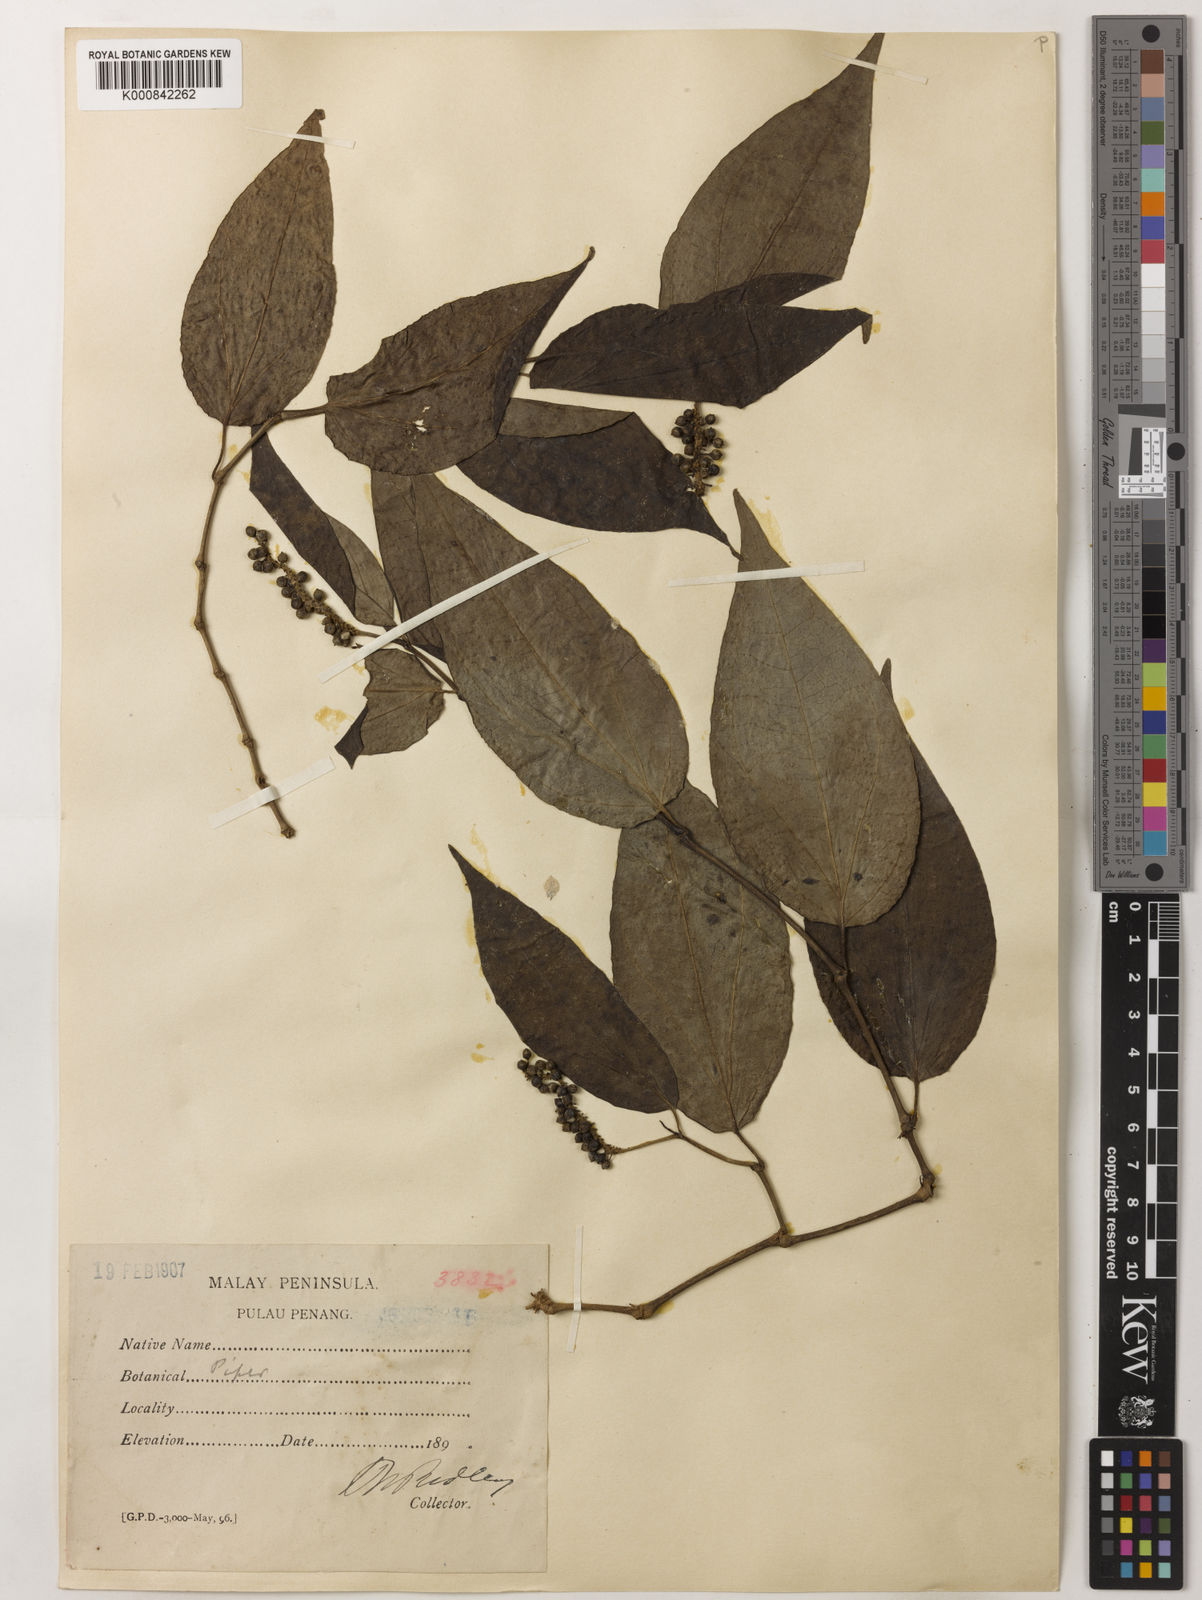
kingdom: Plantae
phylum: Tracheophyta
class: Magnoliopsida
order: Piperales
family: Piperaceae
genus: Piper
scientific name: Piper lanatum
